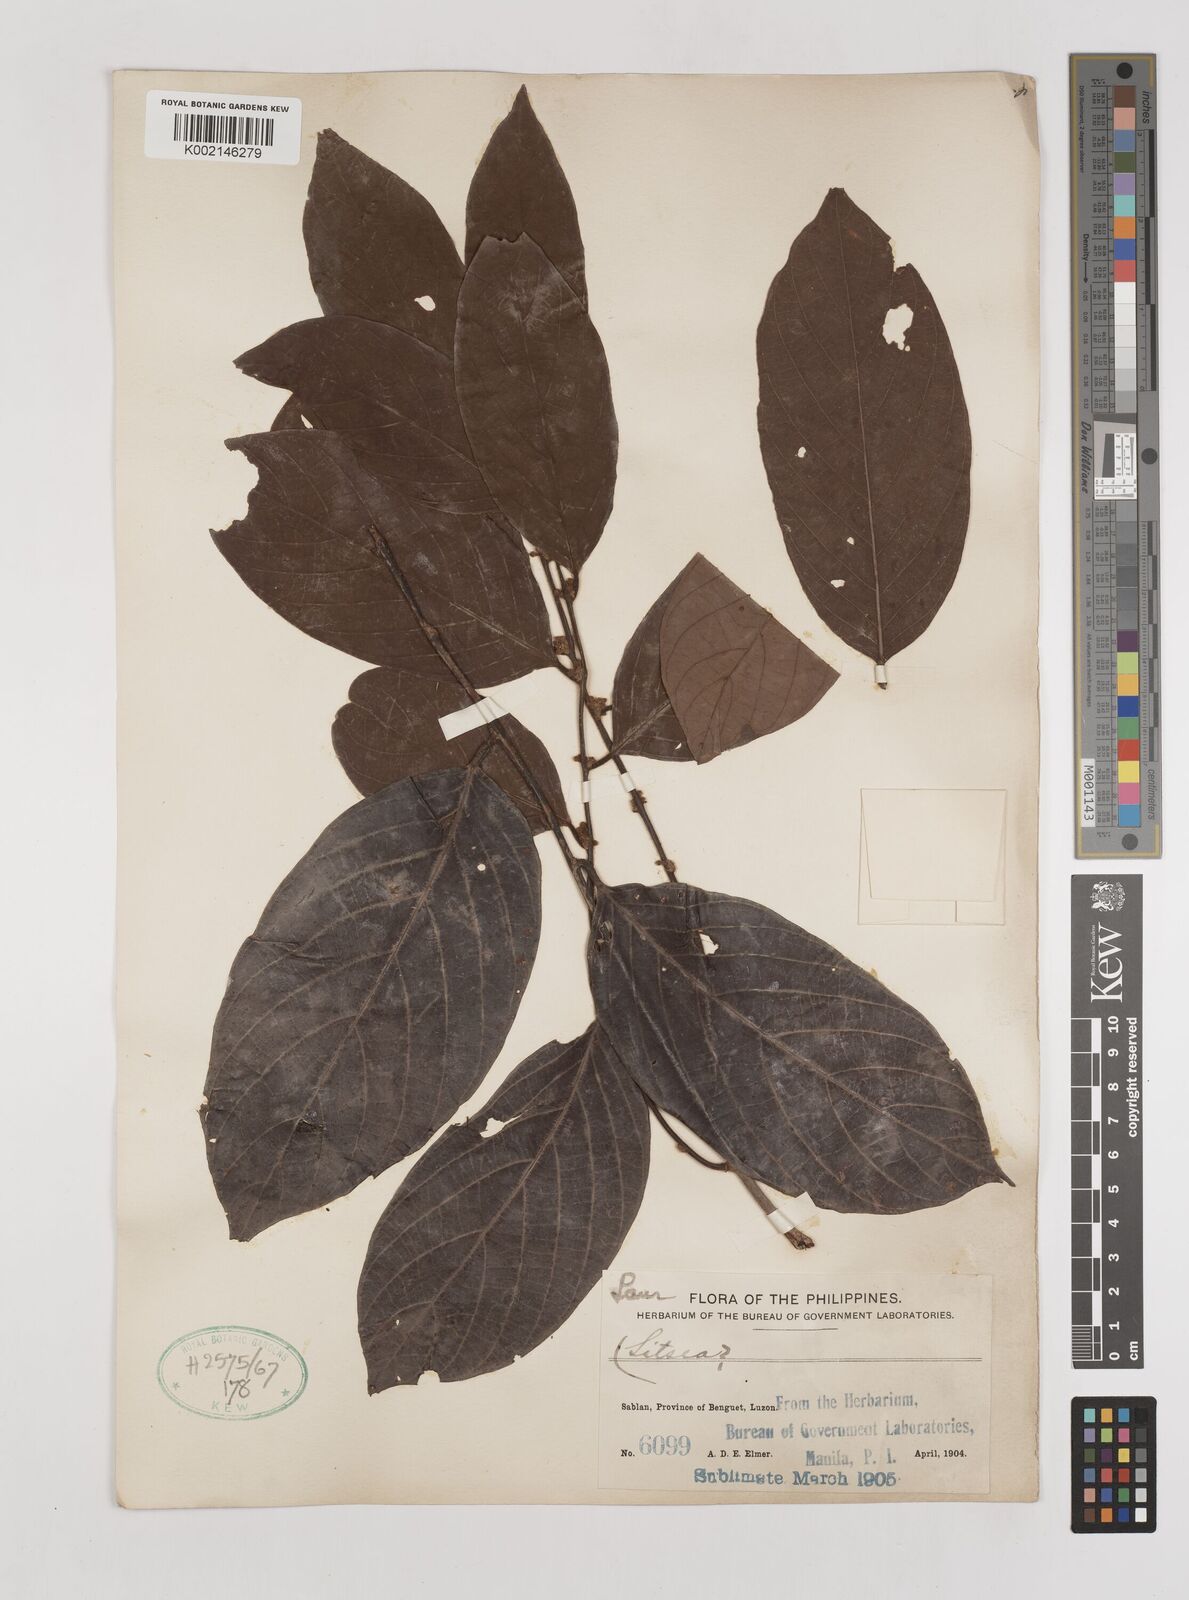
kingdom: Plantae
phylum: Tracheophyta
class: Magnoliopsida
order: Laurales
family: Lauraceae
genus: Litsea
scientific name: Litsea
